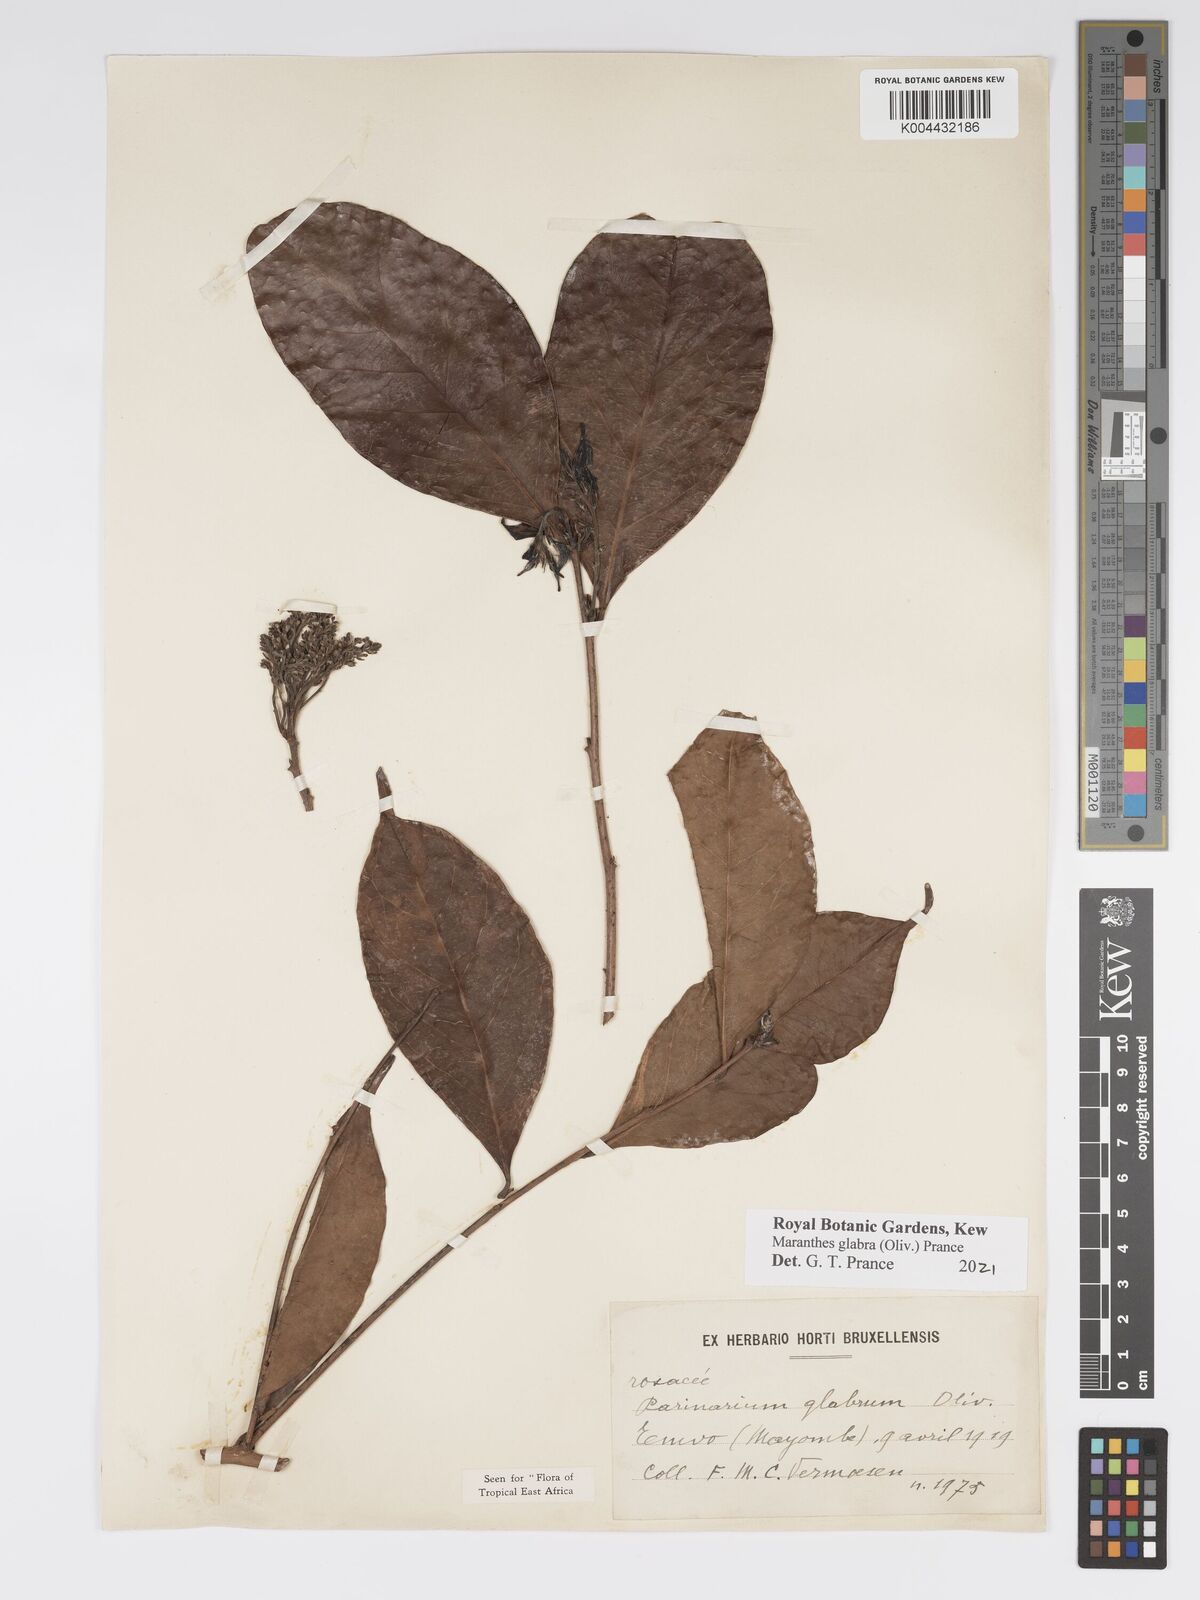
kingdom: Plantae
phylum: Tracheophyta
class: Magnoliopsida
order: Malpighiales
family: Chrysobalanaceae
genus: Maranthes
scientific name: Maranthes glabra
